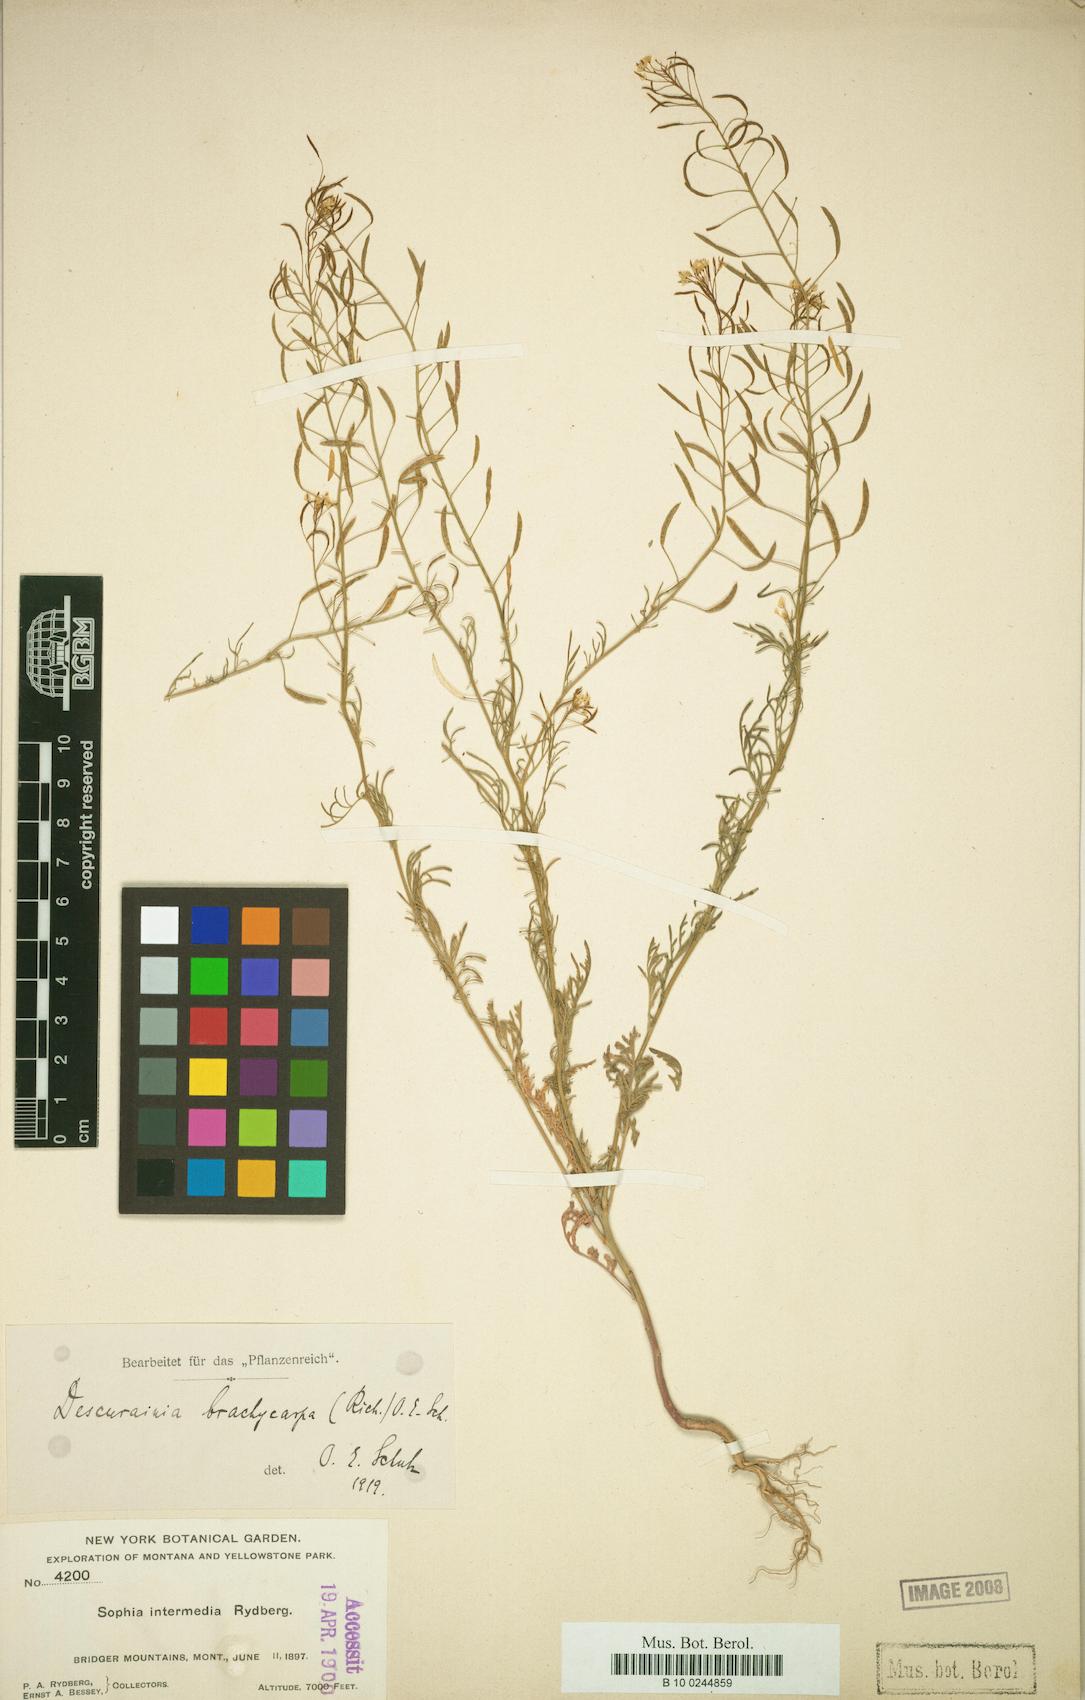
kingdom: Plantae
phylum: Tracheophyta
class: Magnoliopsida
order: Brassicales
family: Brassicaceae
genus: Descurainia
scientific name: Descurainia pinnata
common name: Western tansy mustard
